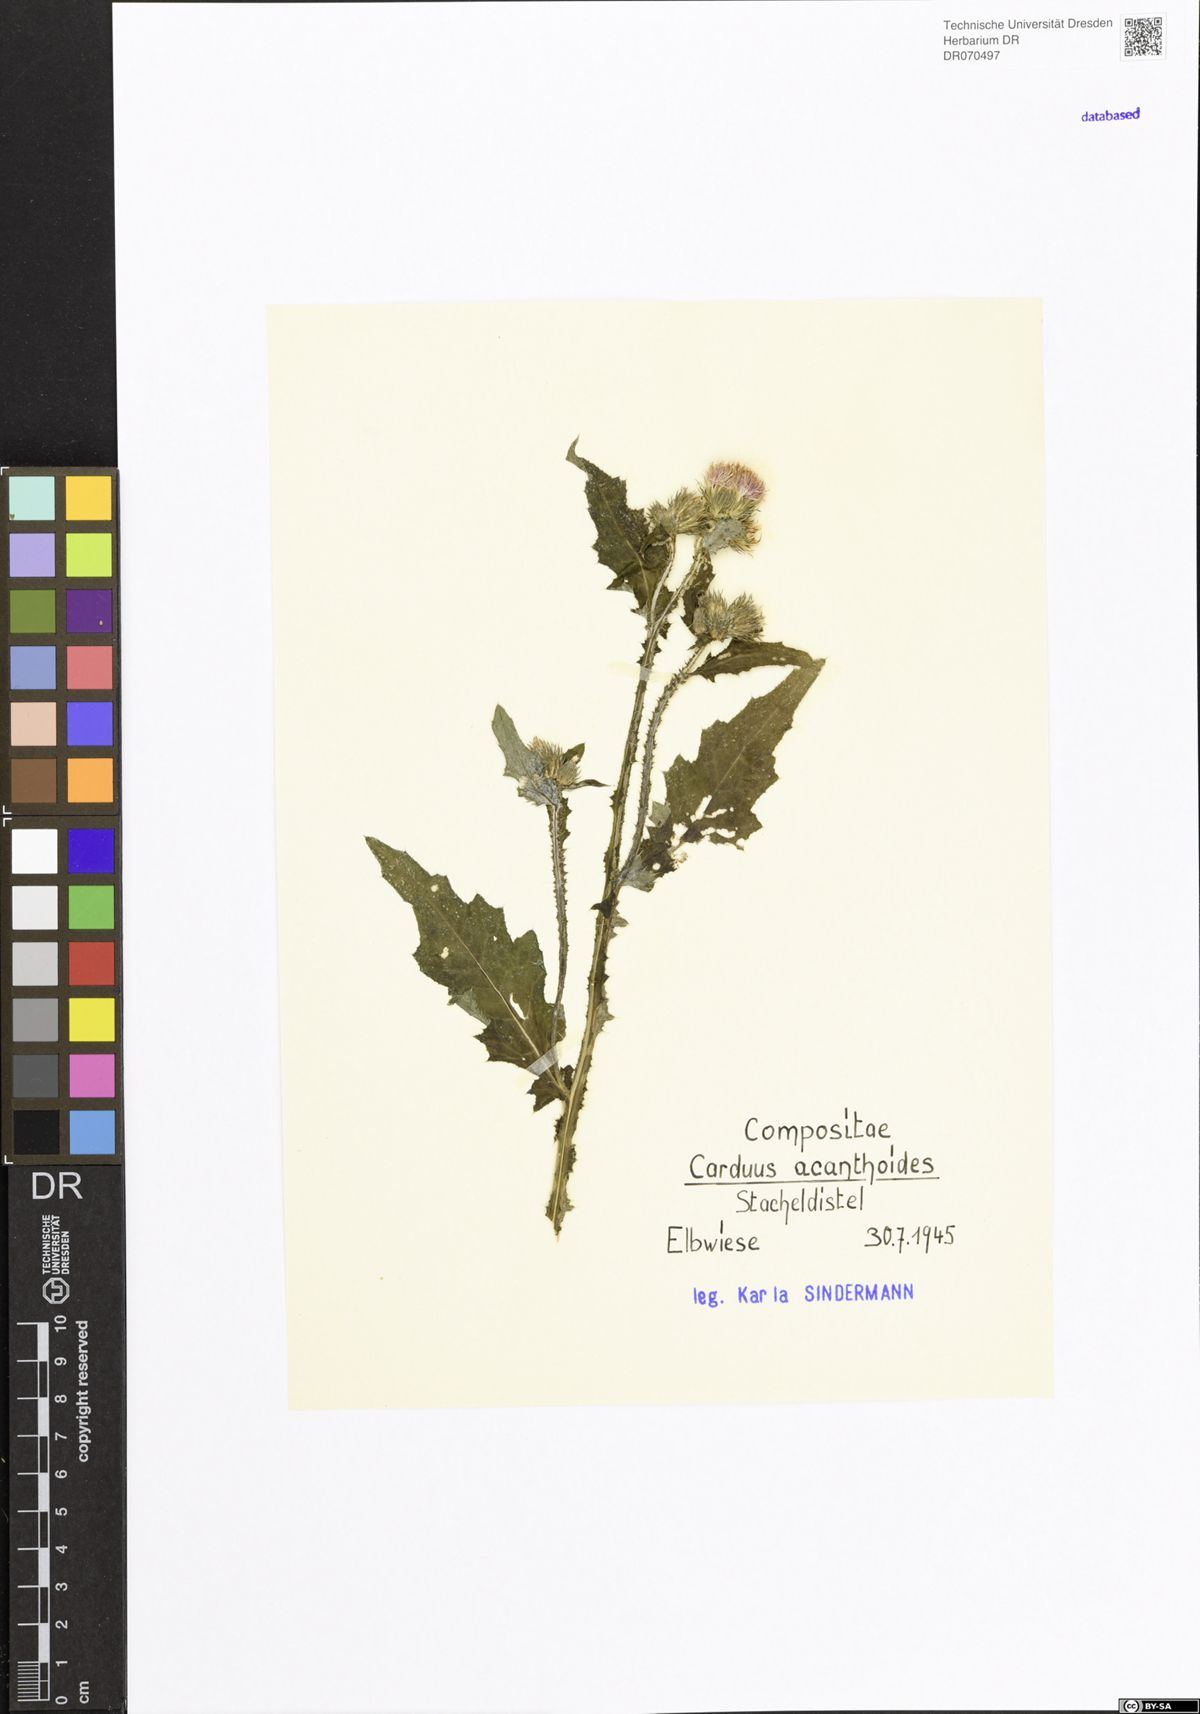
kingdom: Plantae
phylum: Tracheophyta
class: Magnoliopsida
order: Asterales
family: Asteraceae
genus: Carduus
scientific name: Carduus acanthoides
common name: Plumeless thistle
